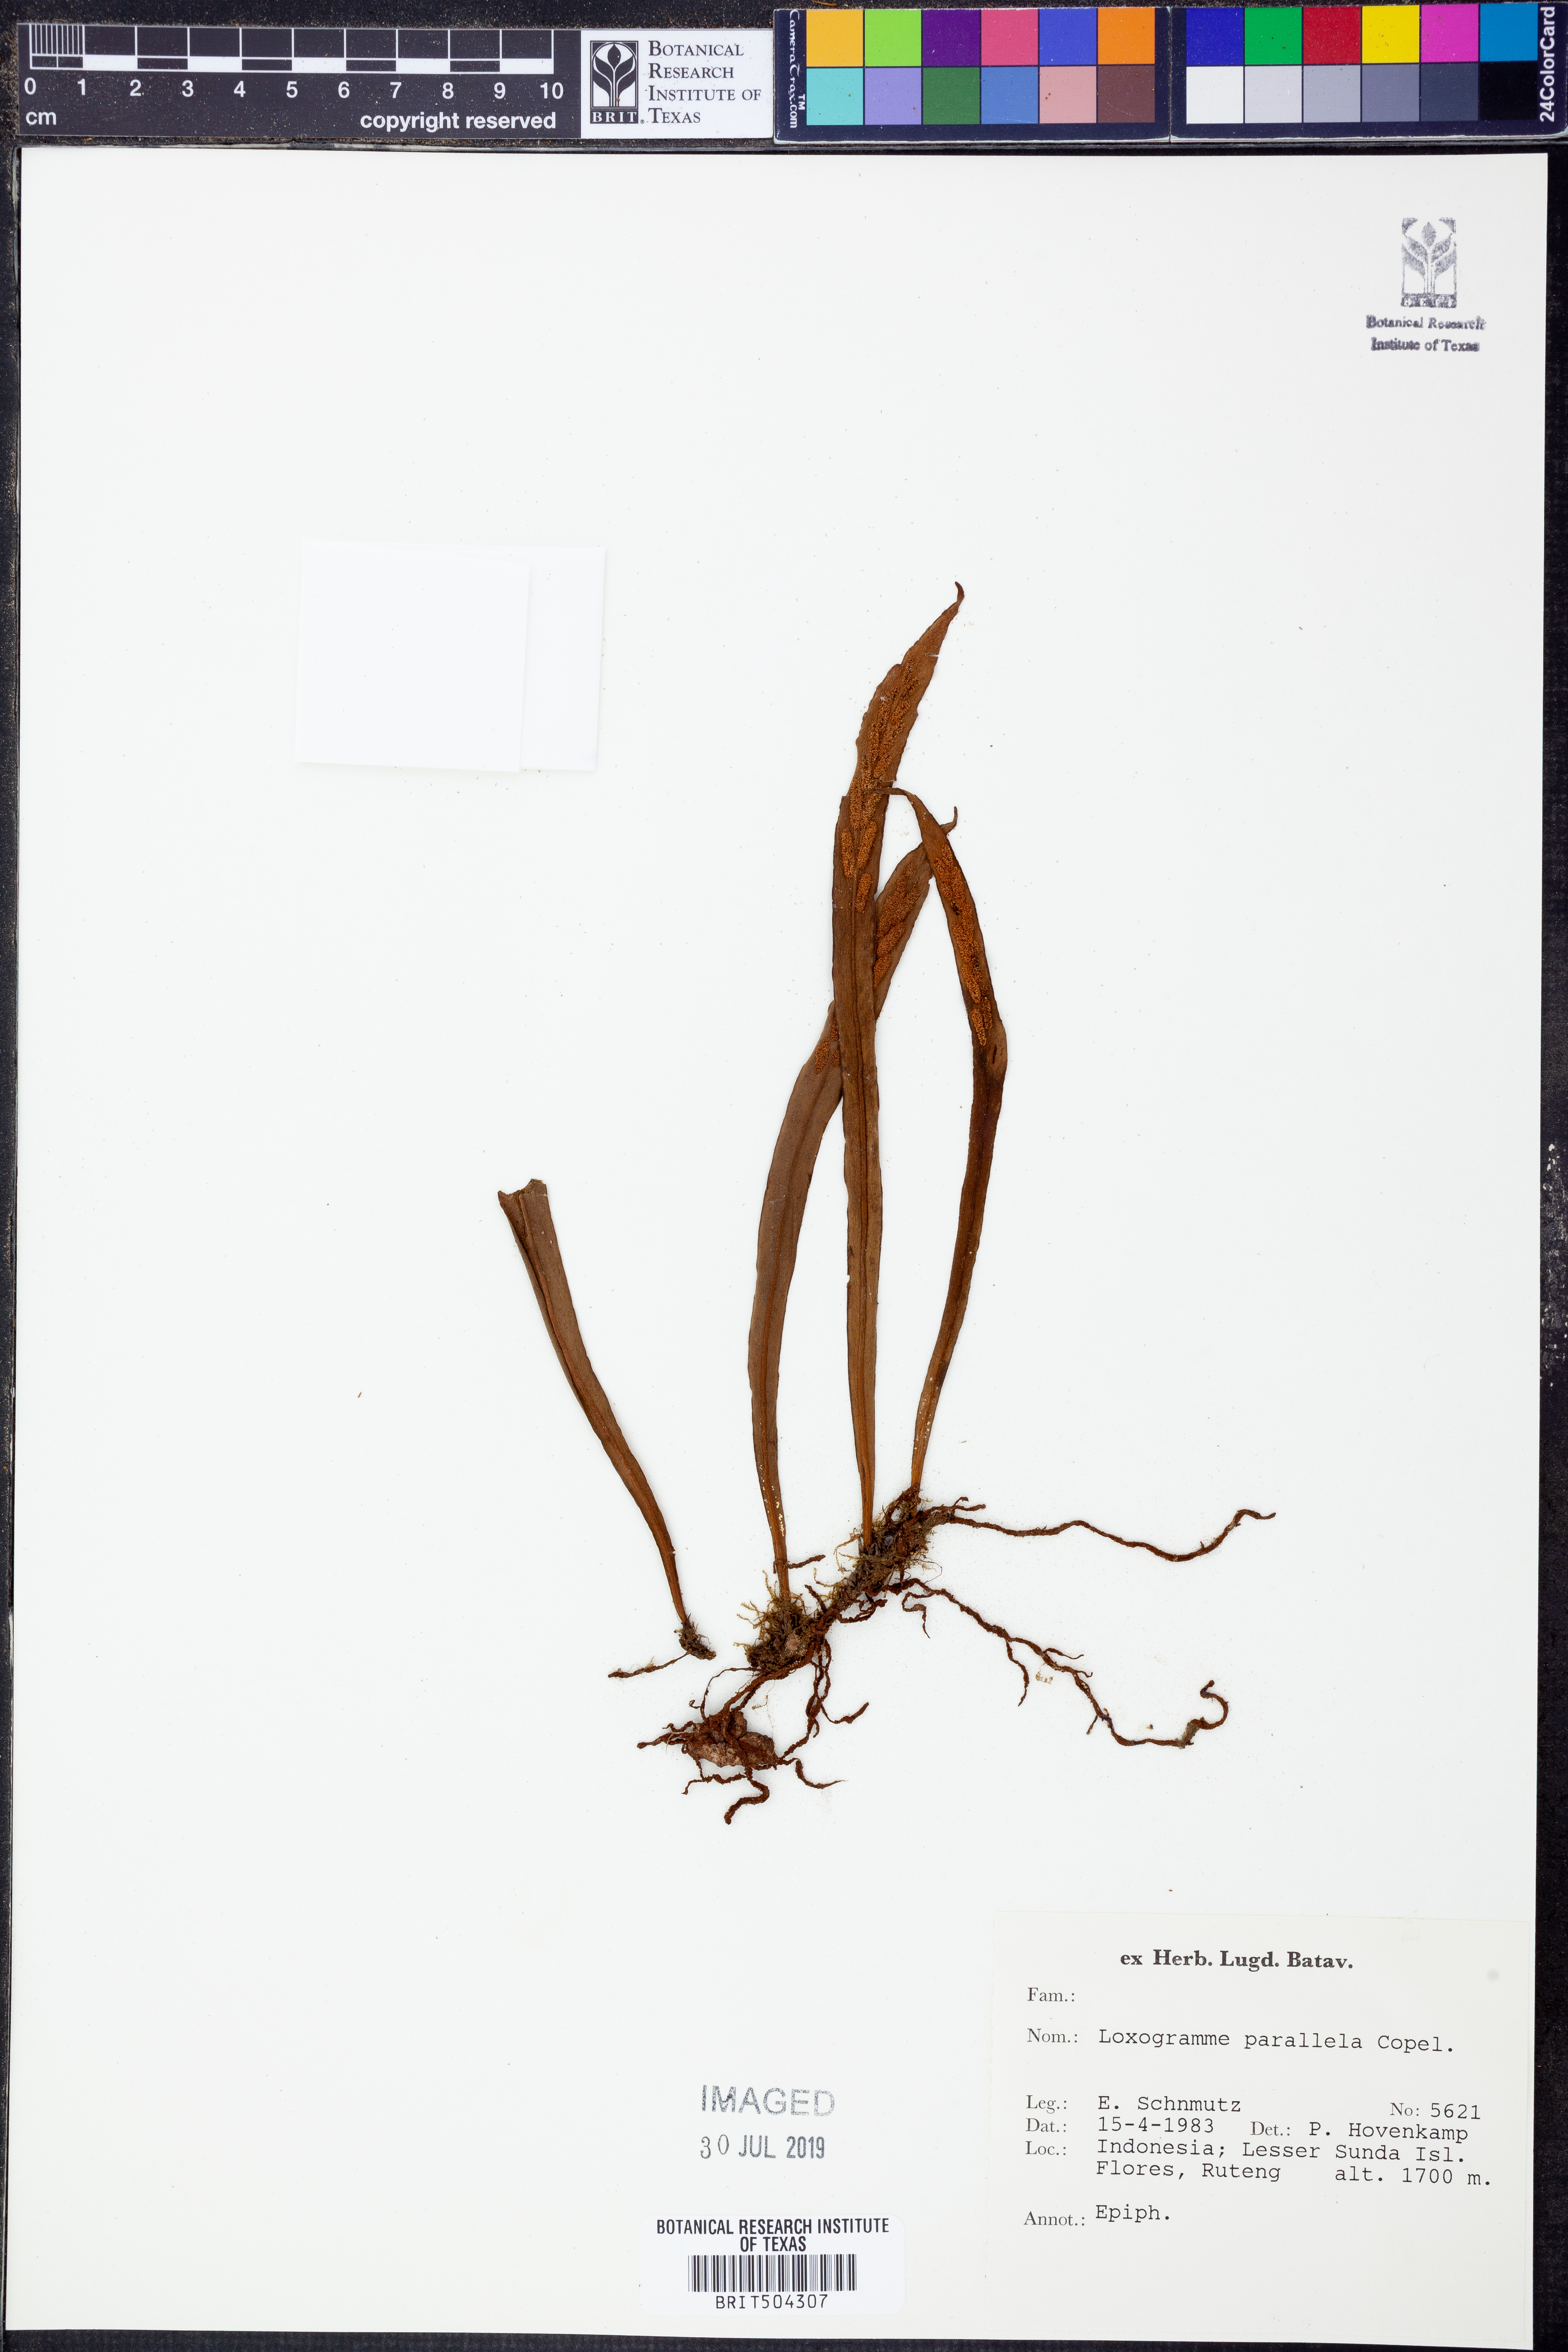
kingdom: Plantae
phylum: Tracheophyta
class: Polypodiopsida
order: Polypodiales
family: Polypodiaceae
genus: Loxogramme
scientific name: Loxogramme parallela
